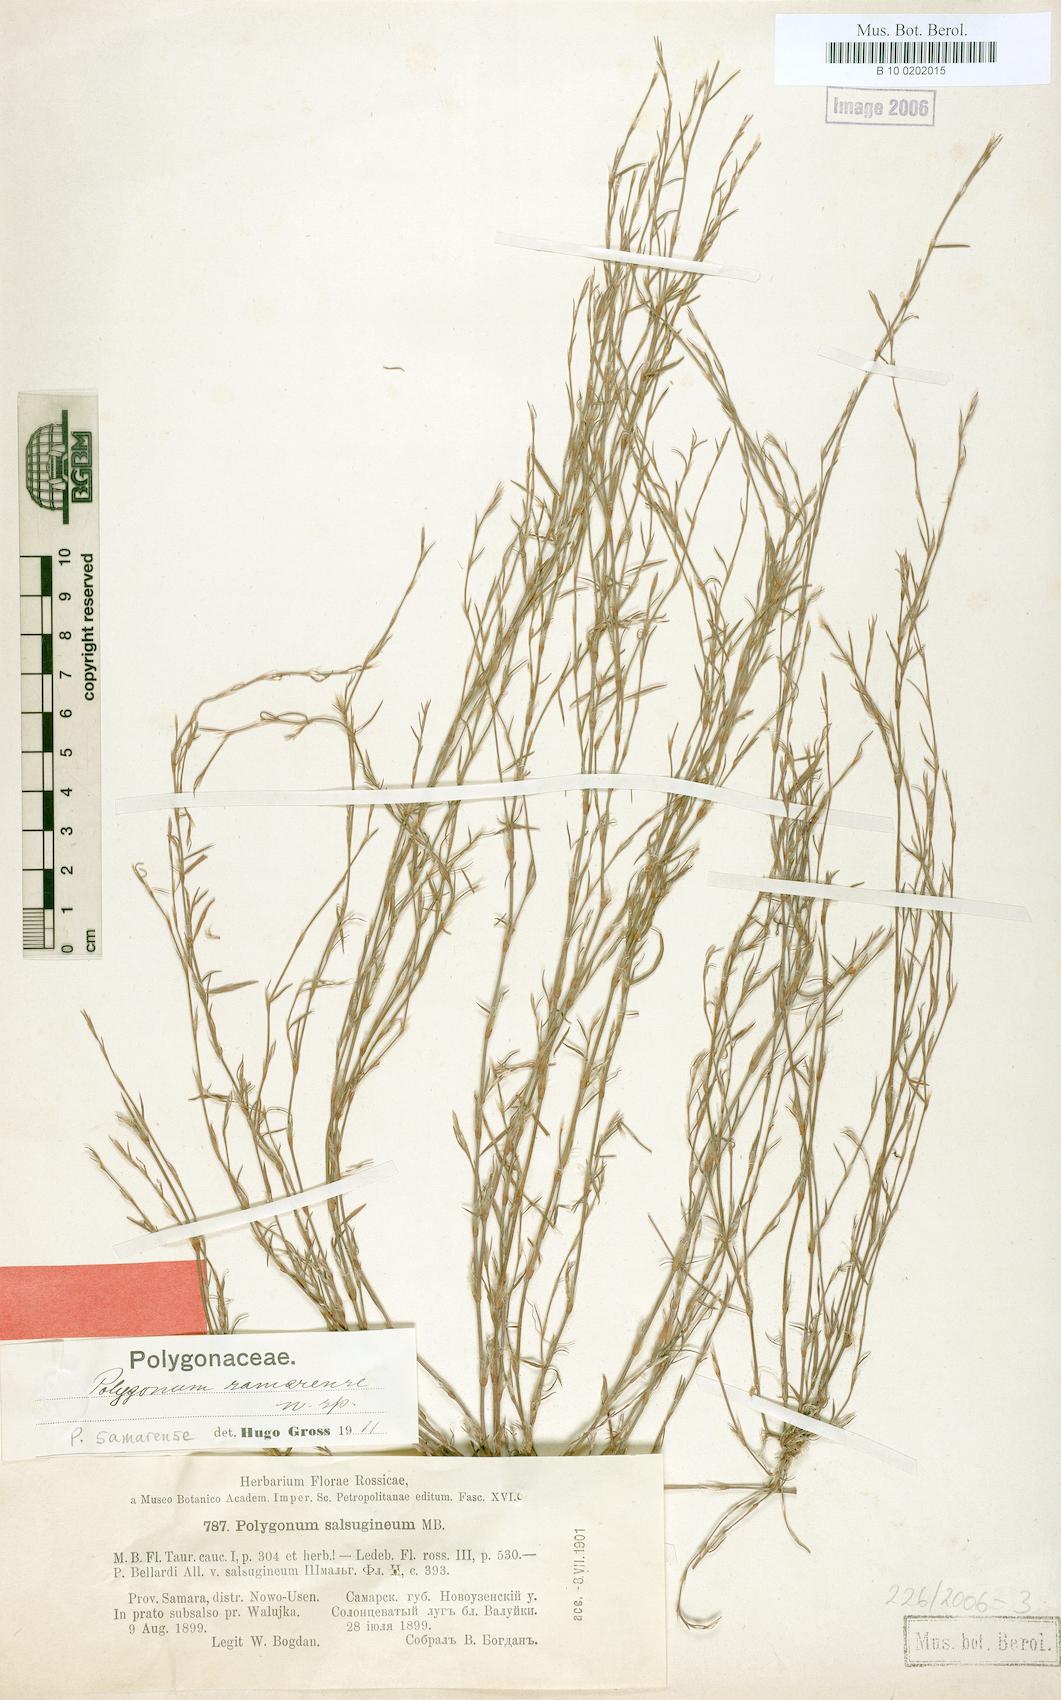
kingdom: Plantae
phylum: Tracheophyta
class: Magnoliopsida
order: Caryophyllales
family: Polygonaceae
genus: Polygonum
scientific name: Polygonum aschersonianum
